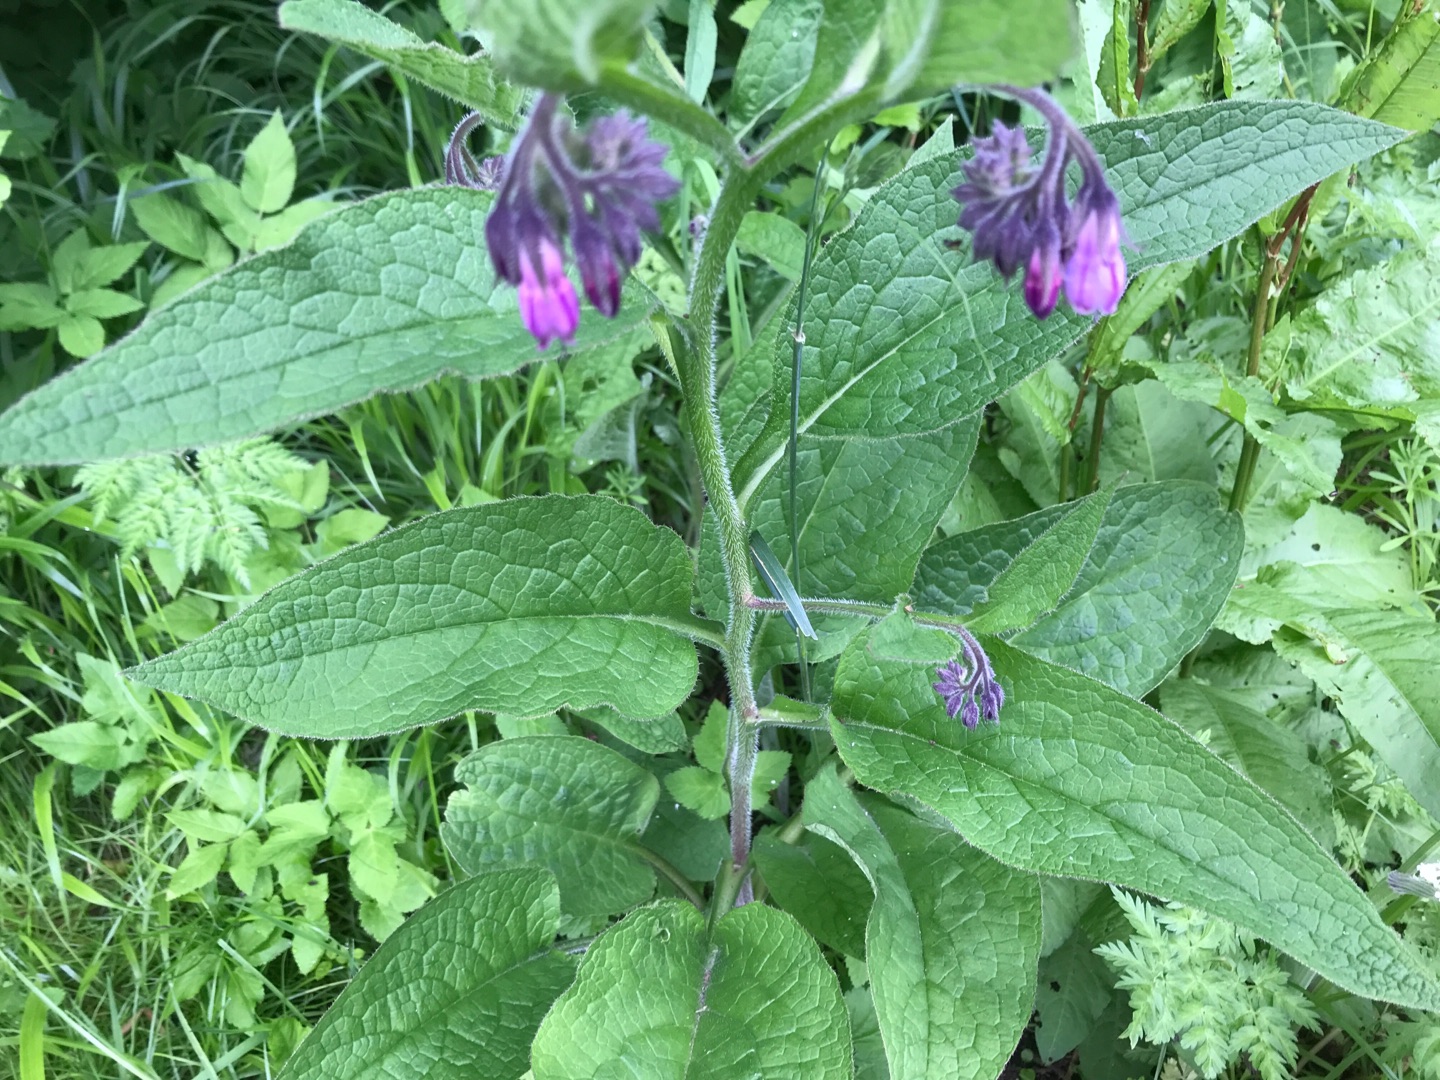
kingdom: Plantae
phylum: Tracheophyta
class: Magnoliopsida
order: Boraginales
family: Boraginaceae
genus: Symphytum
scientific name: Symphytum uplandicum
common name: Foder-kulsukker
